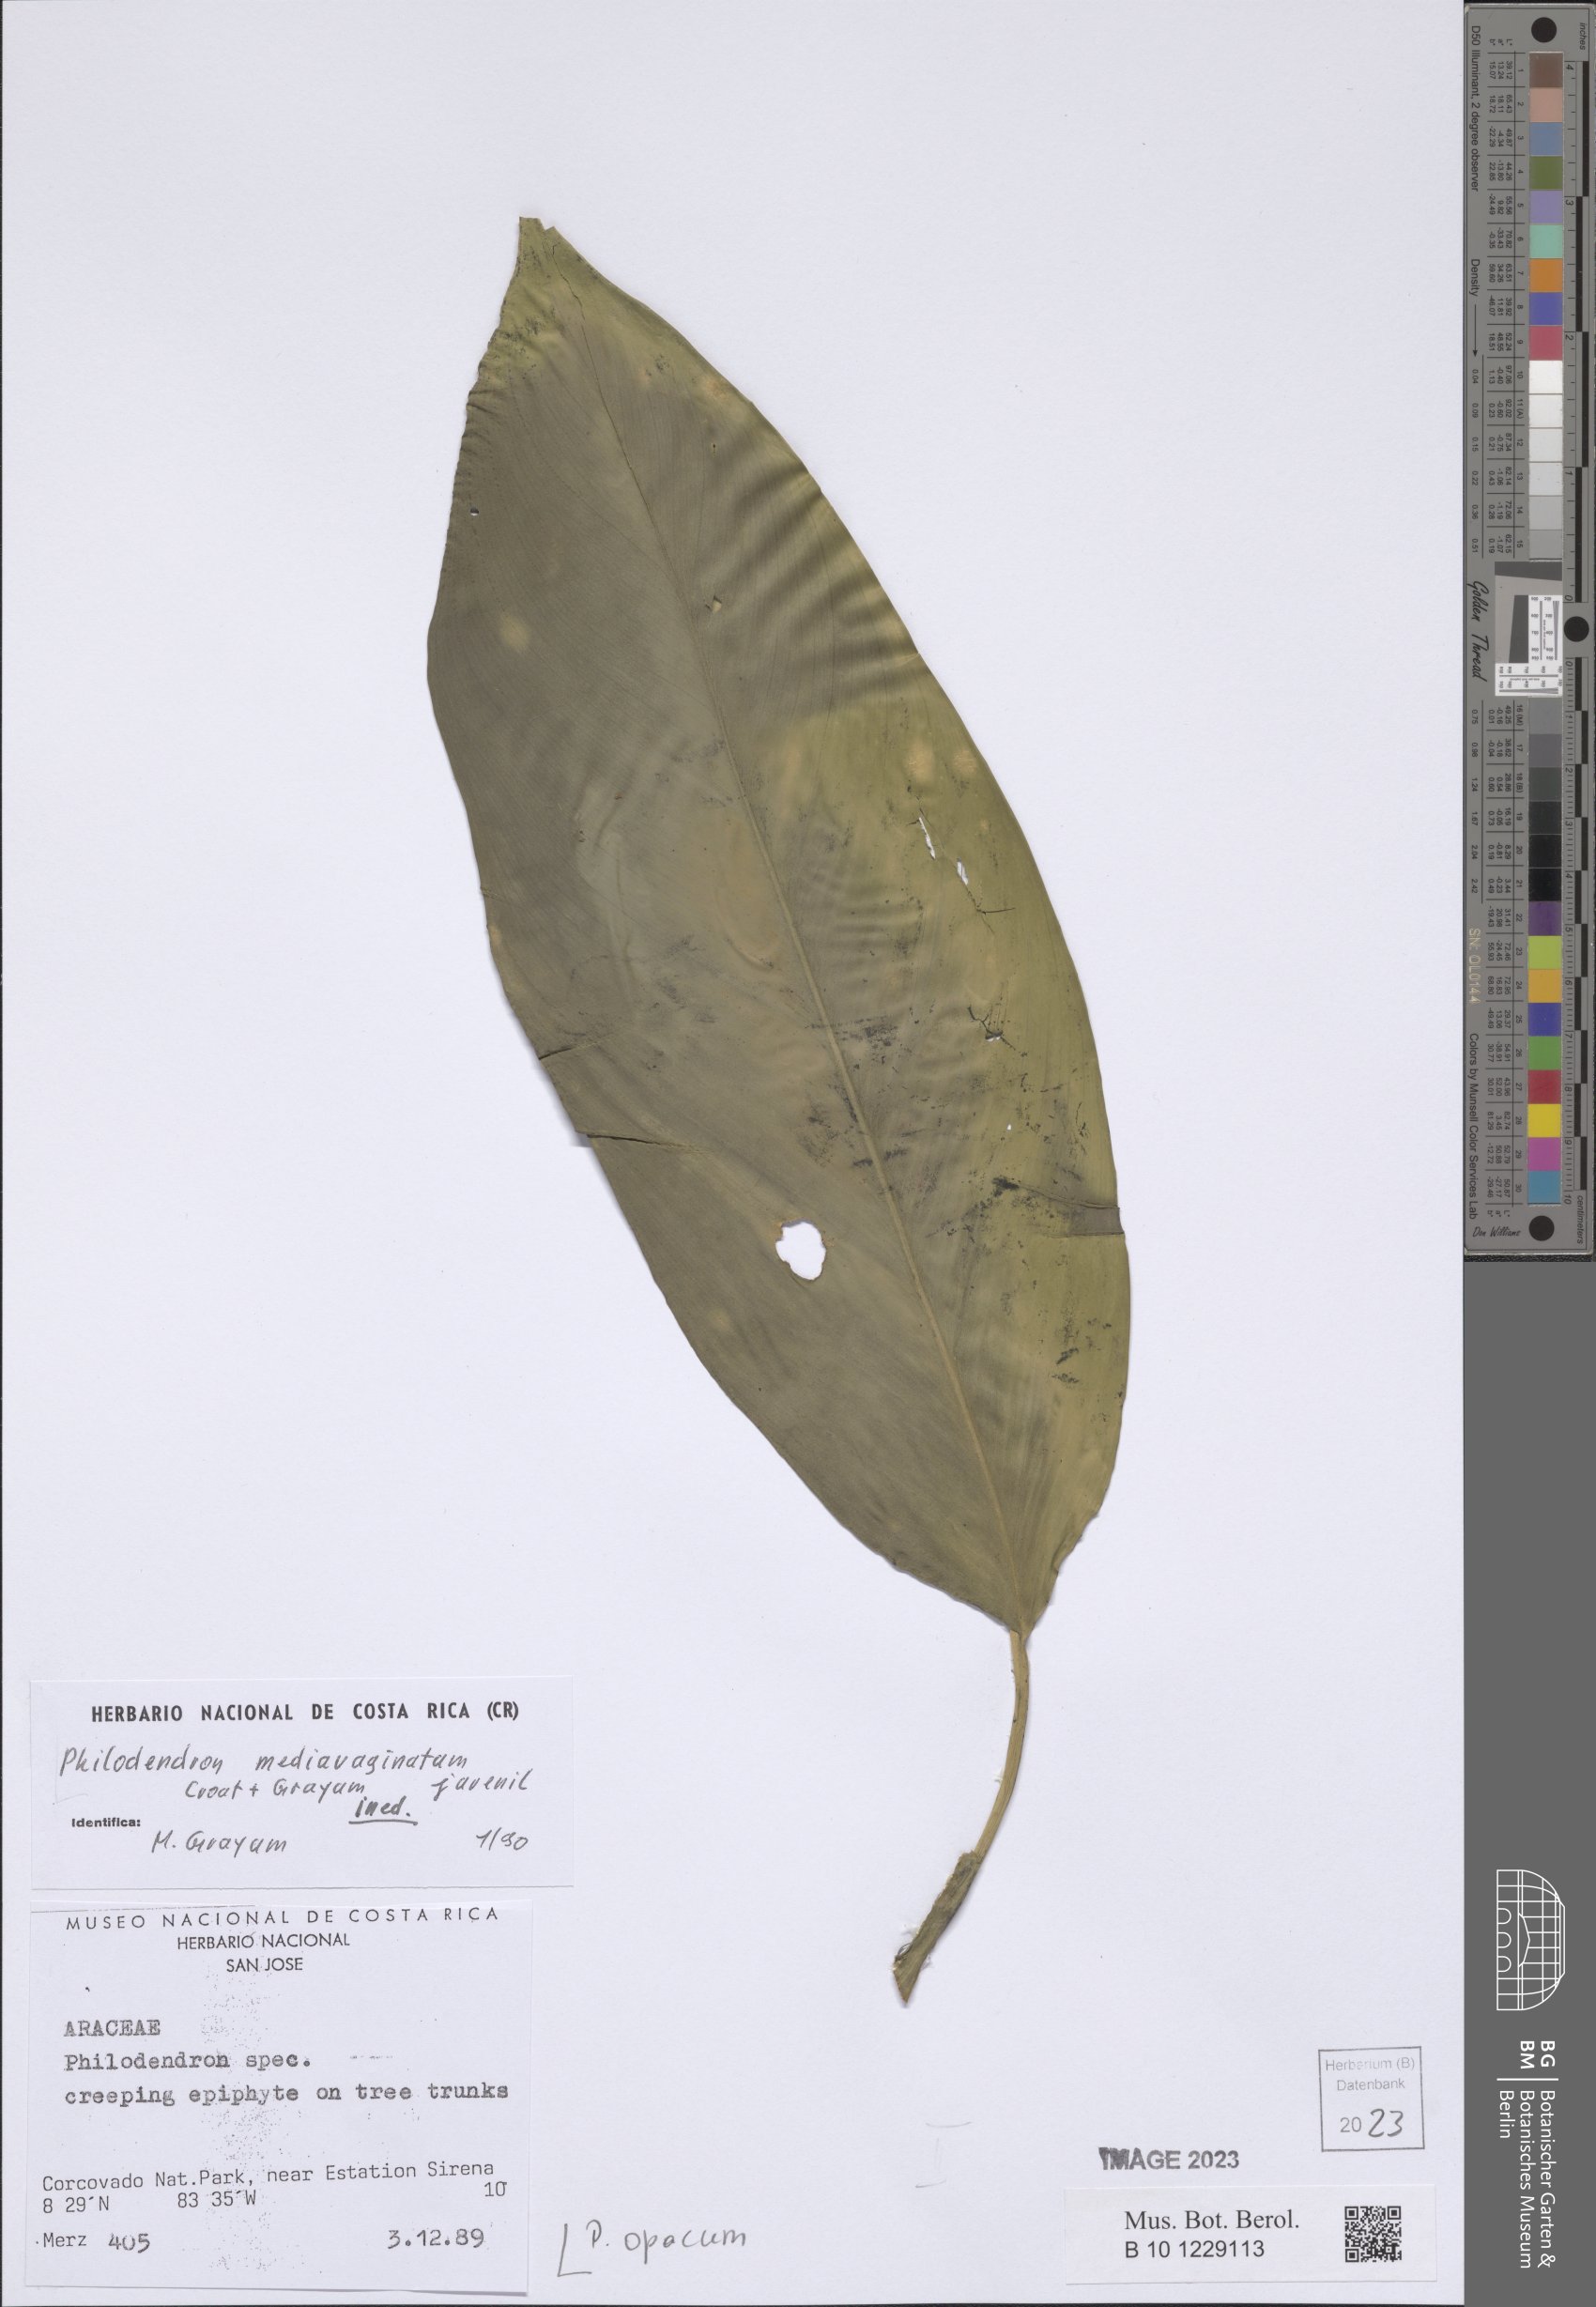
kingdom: Plantae
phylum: Tracheophyta
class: Liliopsida
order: Alismatales
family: Araceae
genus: Philodendron
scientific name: Philodendron opacum
